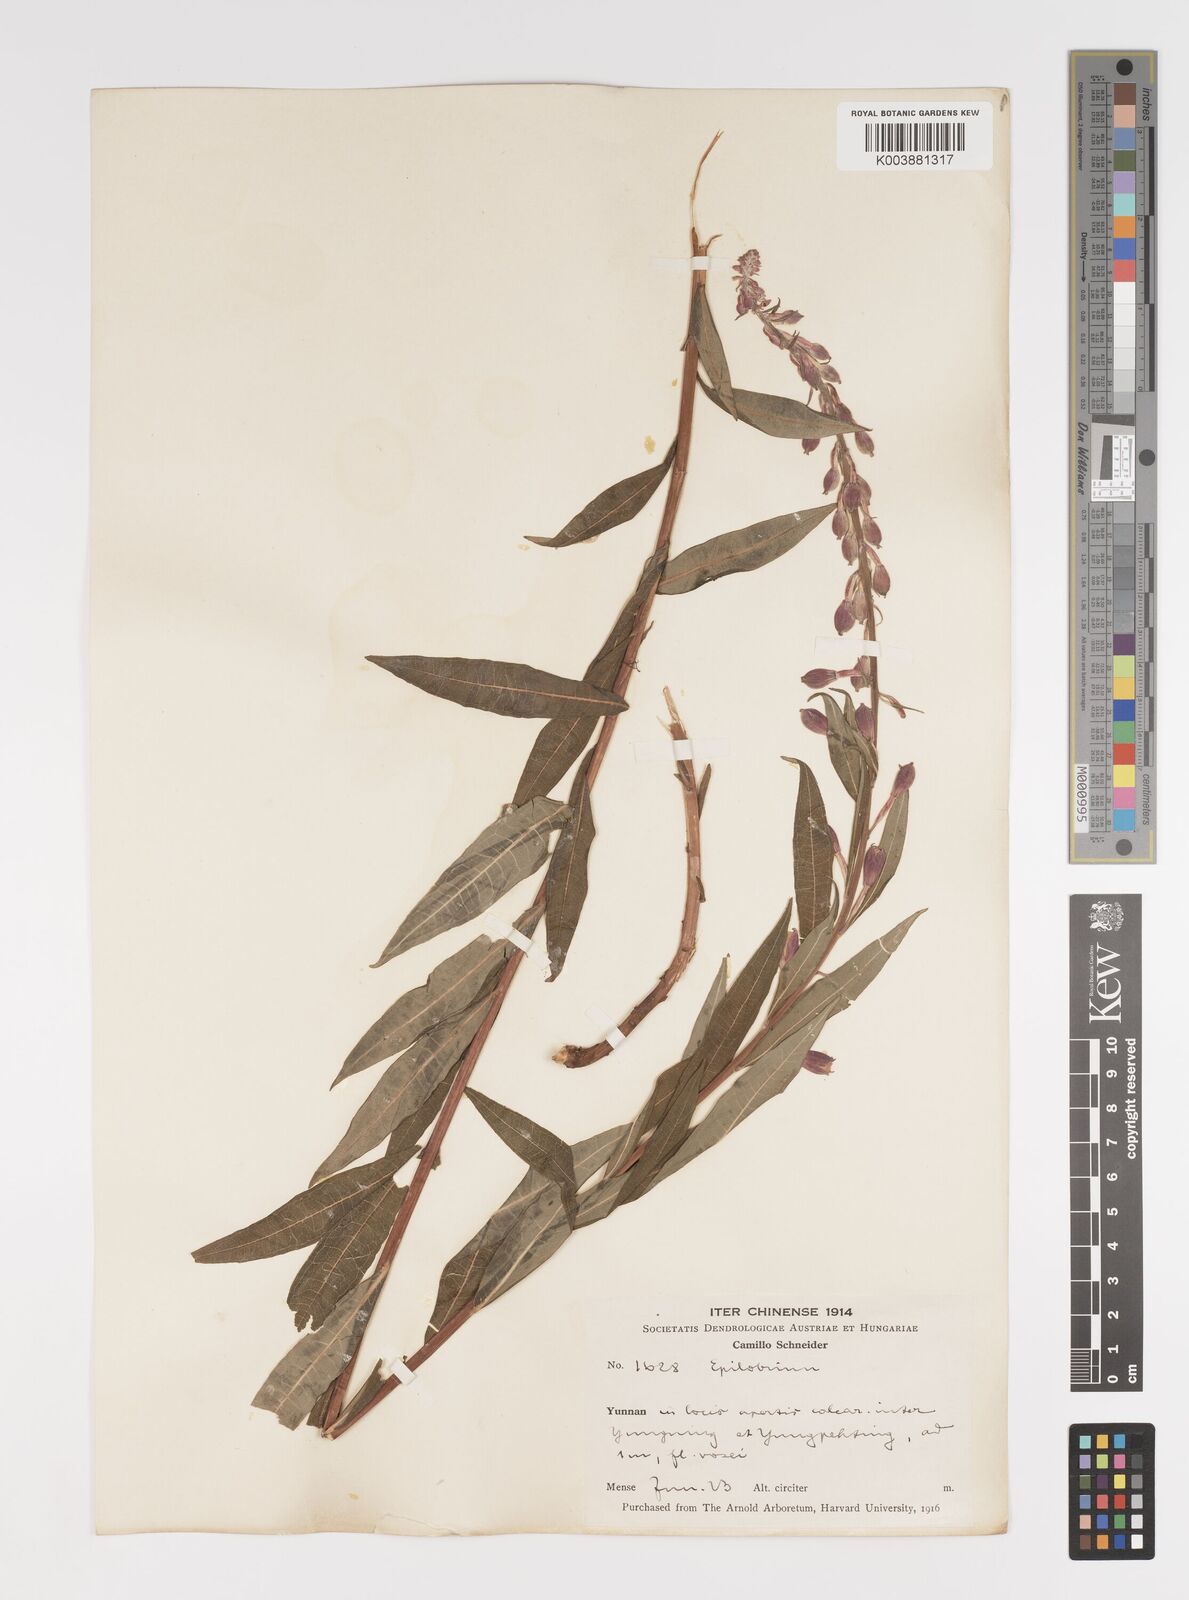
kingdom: Plantae
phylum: Tracheophyta
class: Magnoliopsida
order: Myrtales
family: Onagraceae
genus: Chamaenerion
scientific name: Chamaenerion angustifolium
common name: Fireweed
